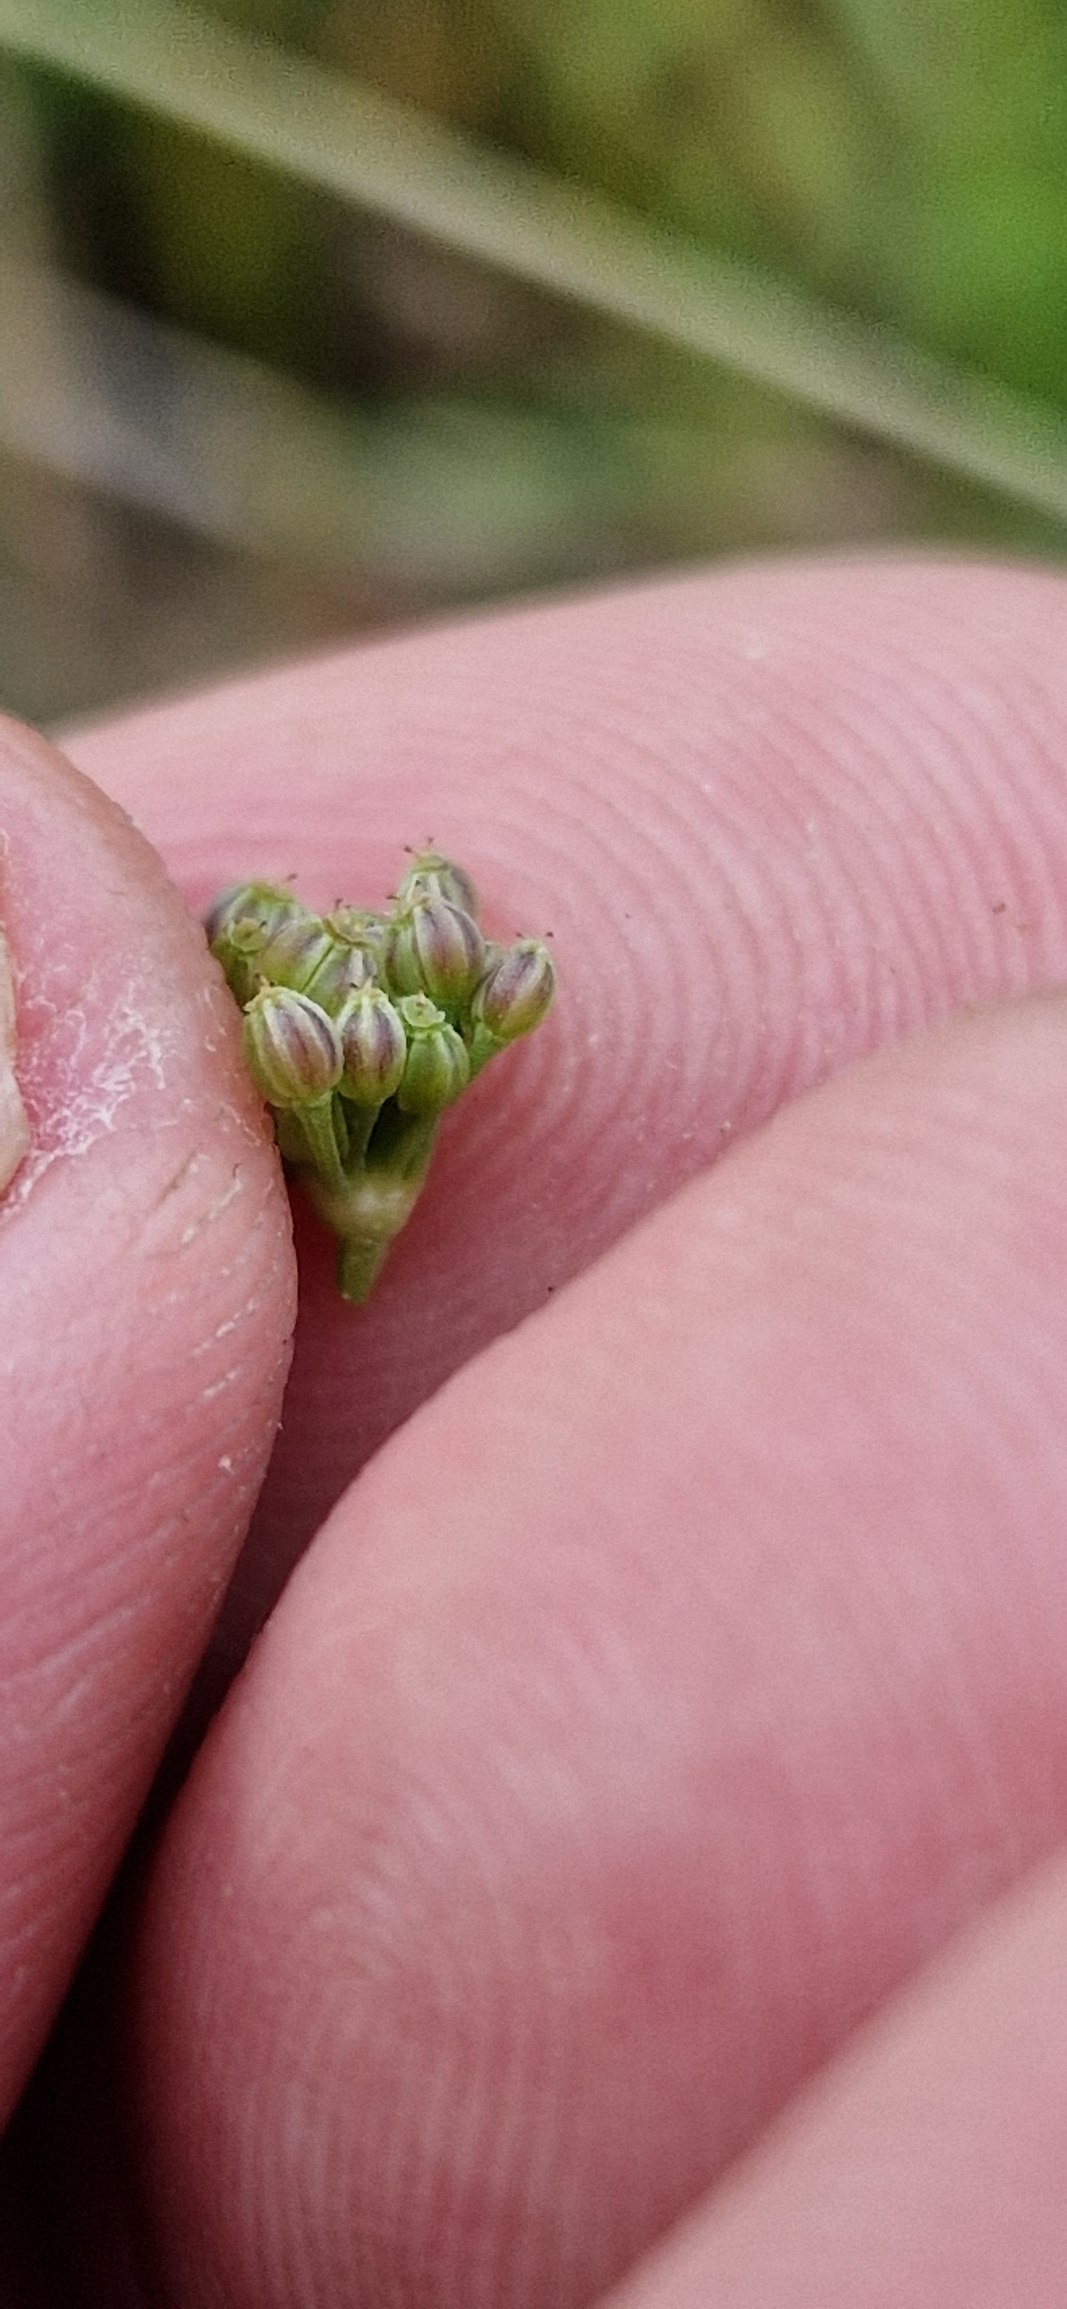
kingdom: Plantae
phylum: Tracheophyta
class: Magnoliopsida
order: Apiales
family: Apiaceae
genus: Apium
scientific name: Apium graveolens
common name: Vild selleri
